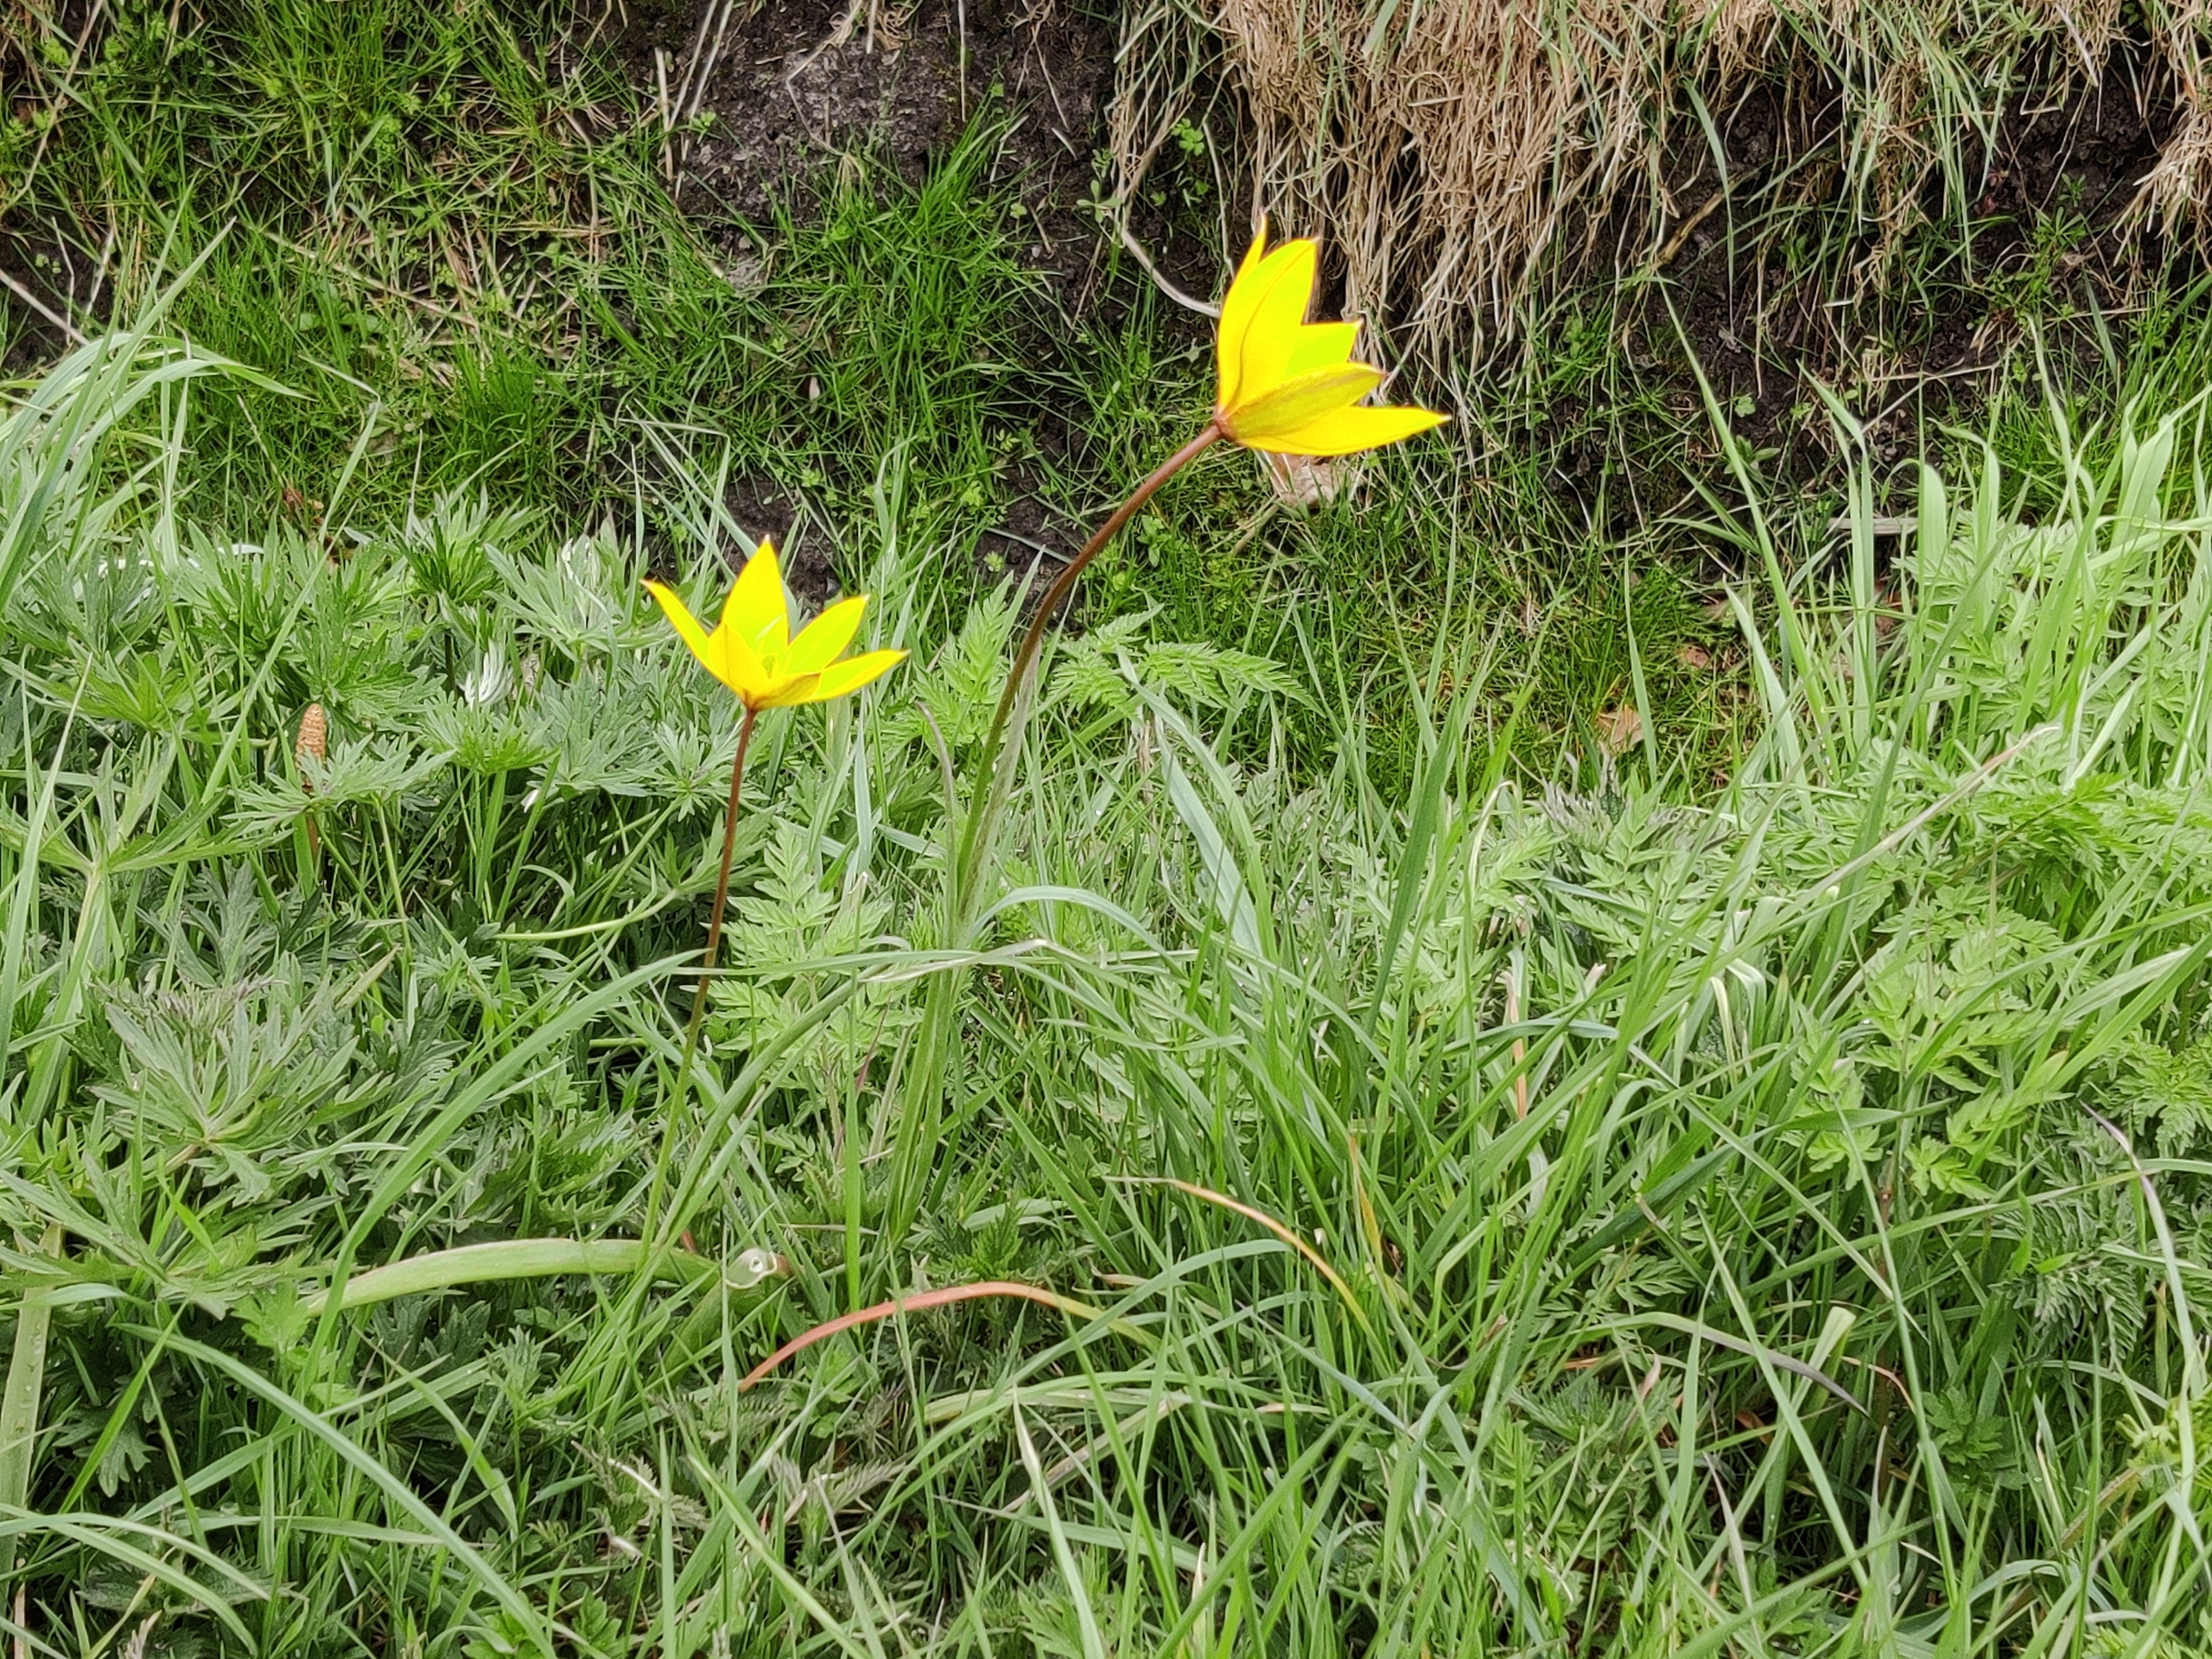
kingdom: Plantae
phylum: Tracheophyta
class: Liliopsida
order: Liliales
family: Liliaceae
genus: Tulipa
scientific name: Tulipa sylvestris
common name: Vild tulipan
